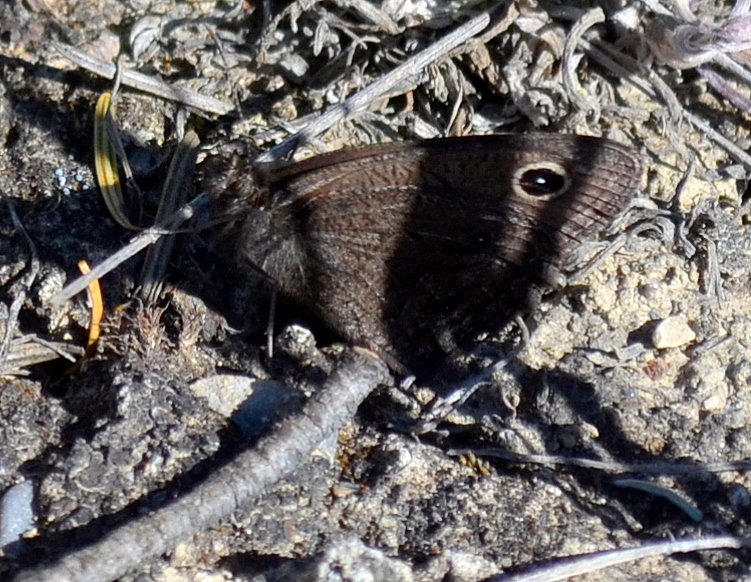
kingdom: Animalia
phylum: Arthropoda
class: Insecta
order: Lepidoptera
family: Nymphalidae
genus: Cercyonis
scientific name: Cercyonis pegala
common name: Common Wood-Nymph
